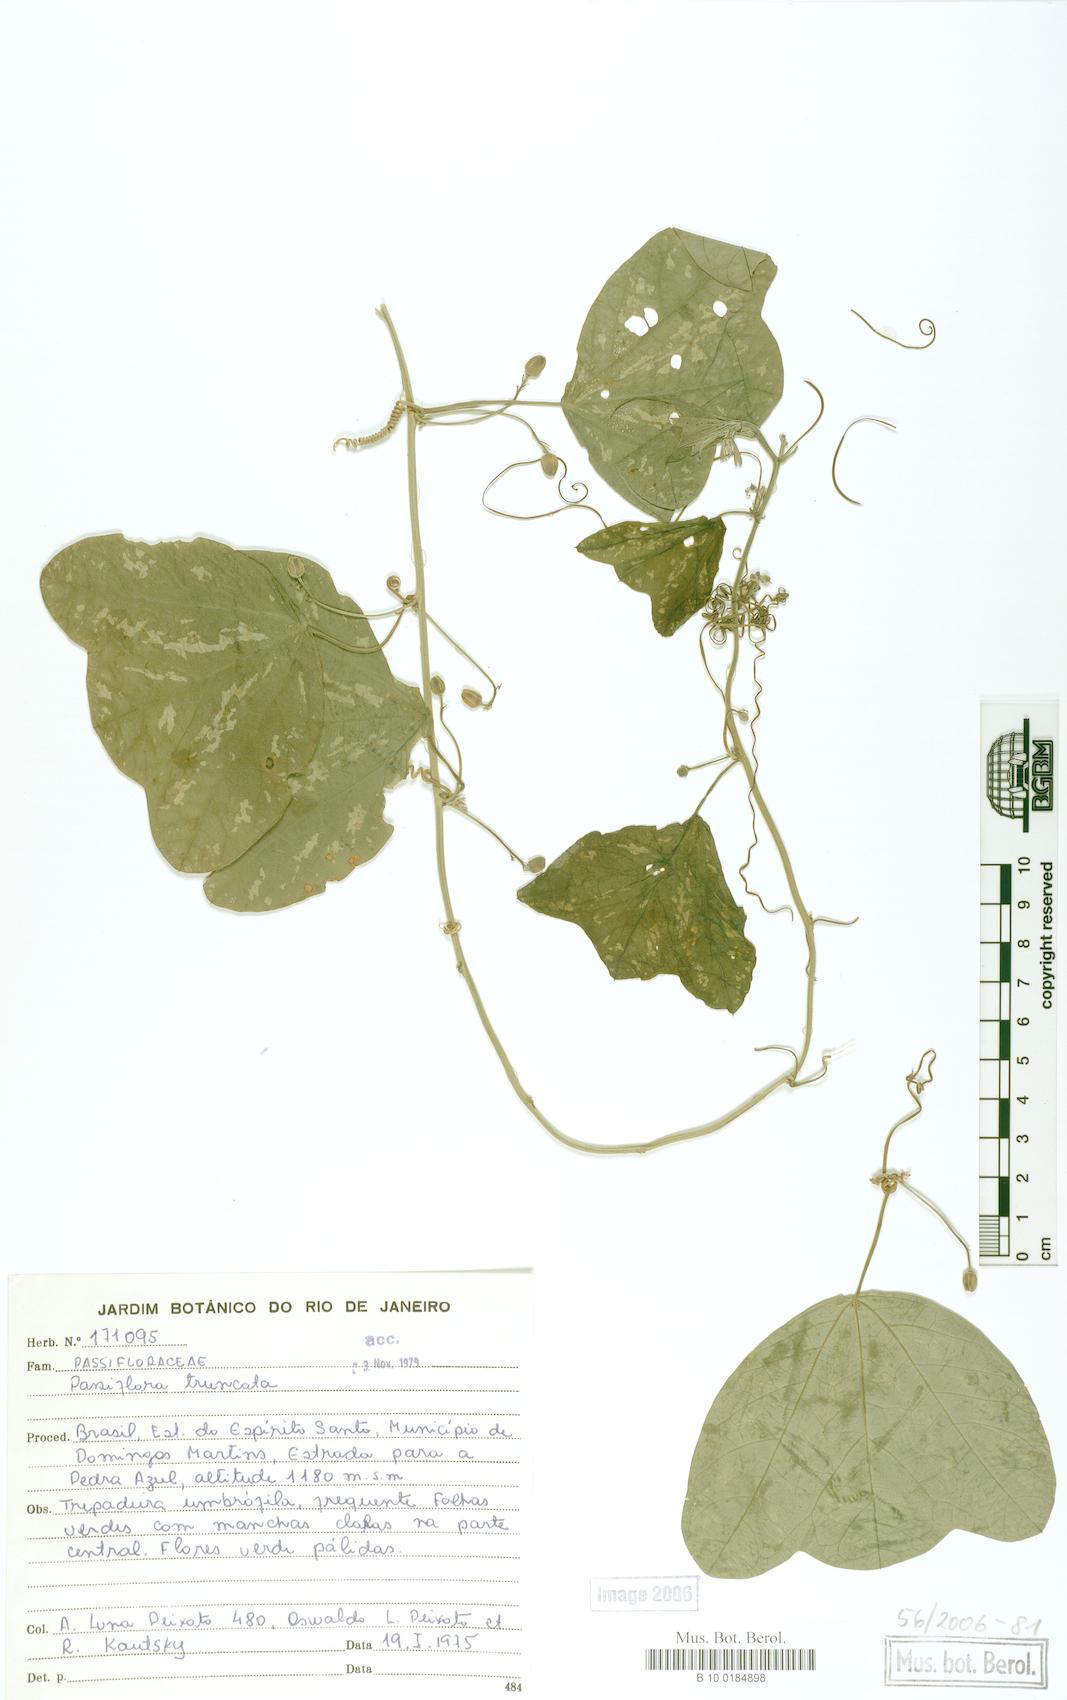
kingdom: Plantae
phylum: Tracheophyta
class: Magnoliopsida
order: Malpighiales
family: Passifloraceae
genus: Passiflora
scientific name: Passiflora truncata
